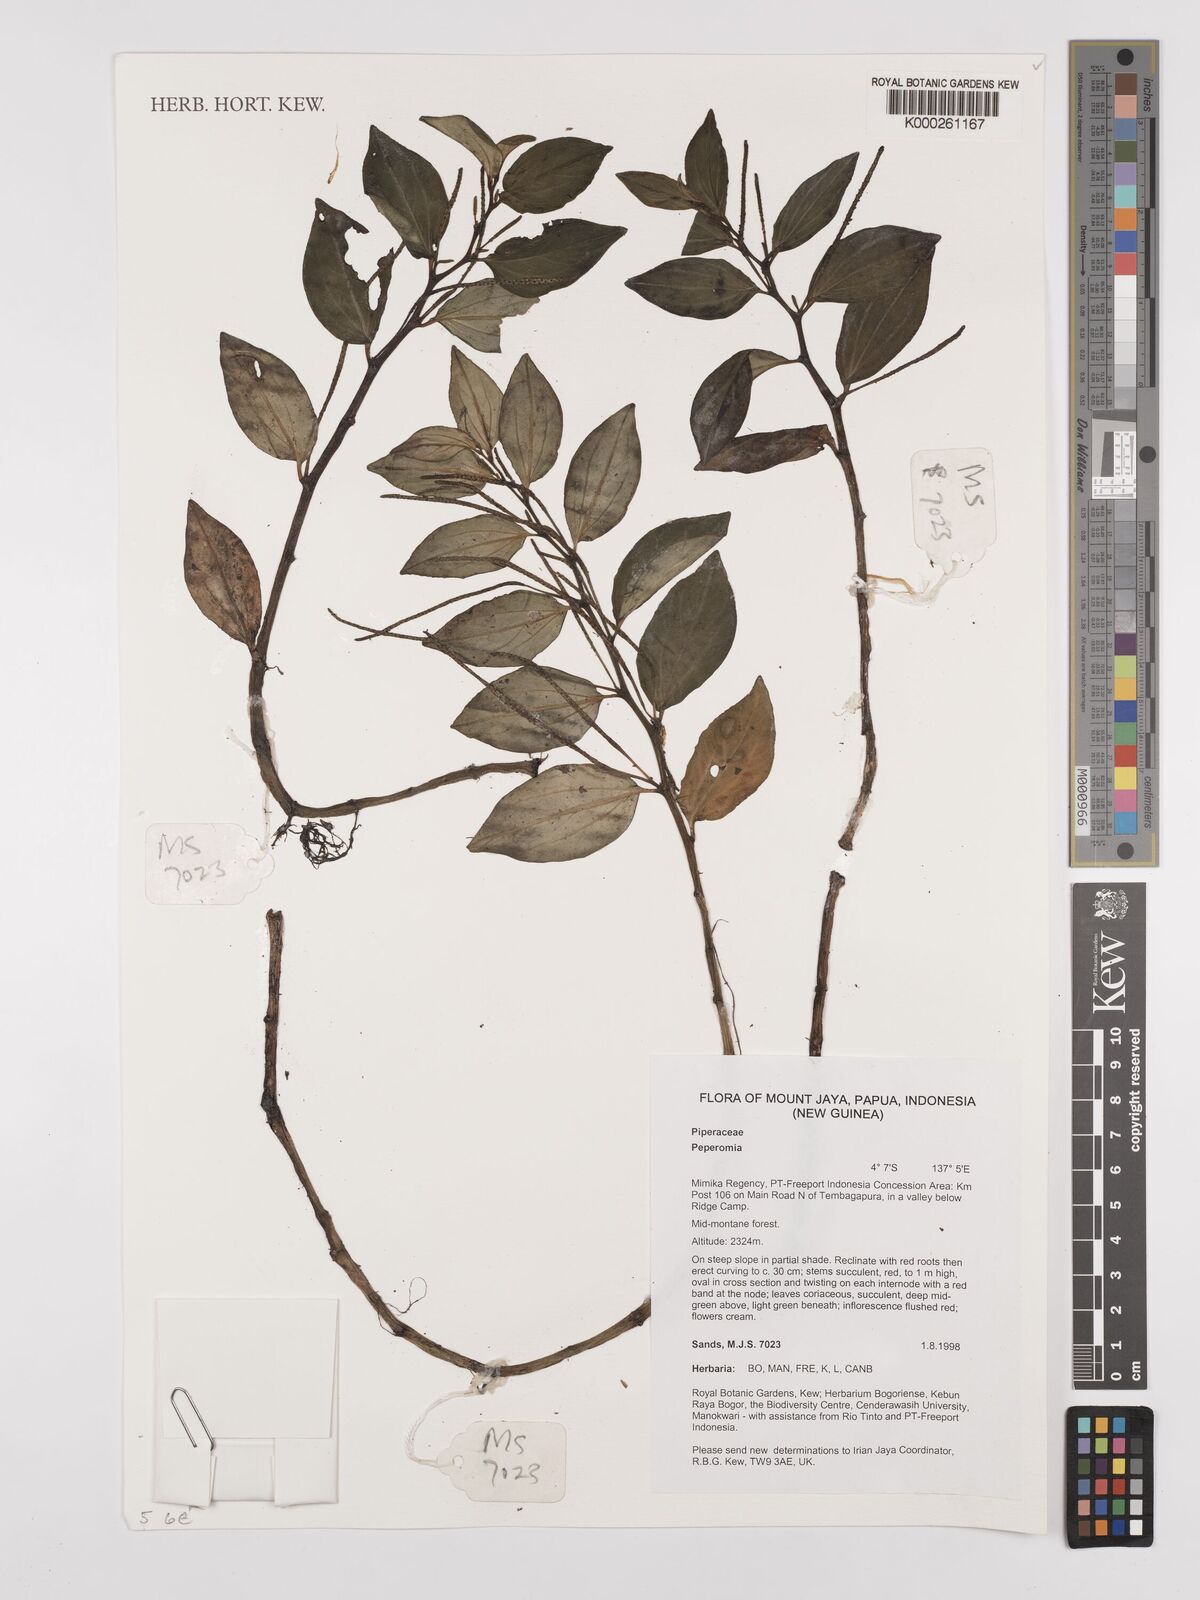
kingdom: Plantae
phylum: Tracheophyta
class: Magnoliopsida
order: Piperales
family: Piperaceae
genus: Peperomia
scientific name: Peperomia
